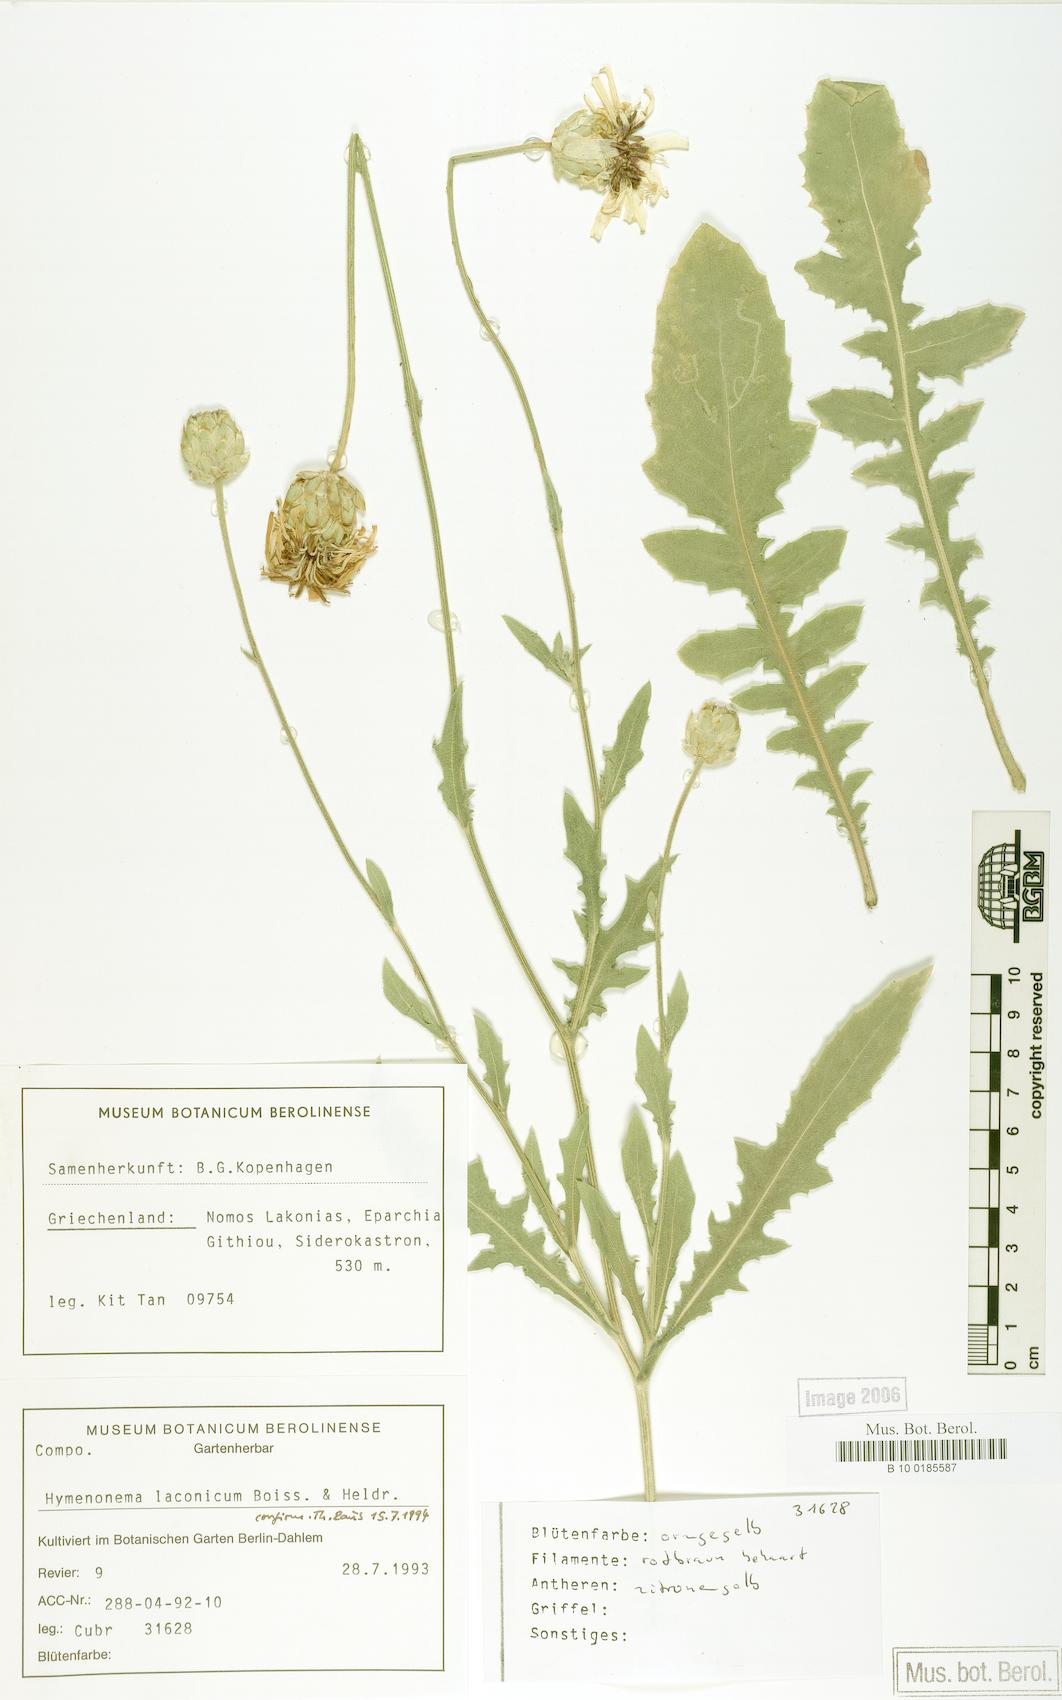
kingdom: Plantae
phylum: Tracheophyta
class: Magnoliopsida
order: Asterales
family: Asteraceae
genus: Hymenonema
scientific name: Hymenonema laconicum
